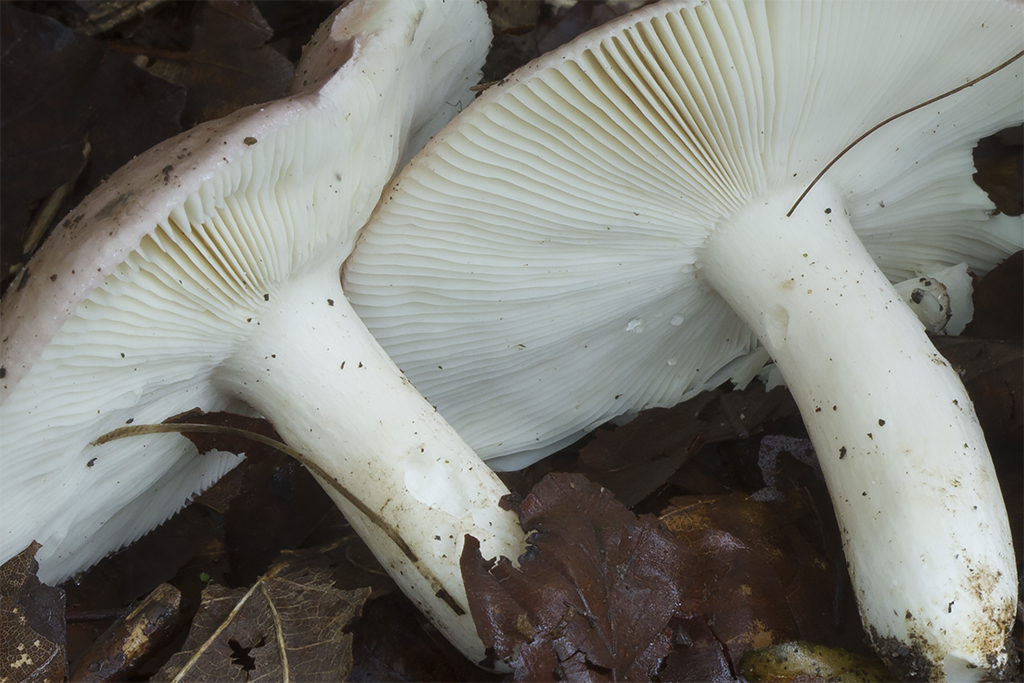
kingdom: Fungi
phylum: Basidiomycota
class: Agaricomycetes
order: Russulales
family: Russulaceae
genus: Russula
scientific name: Russula vesca
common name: spiselig skørhat
